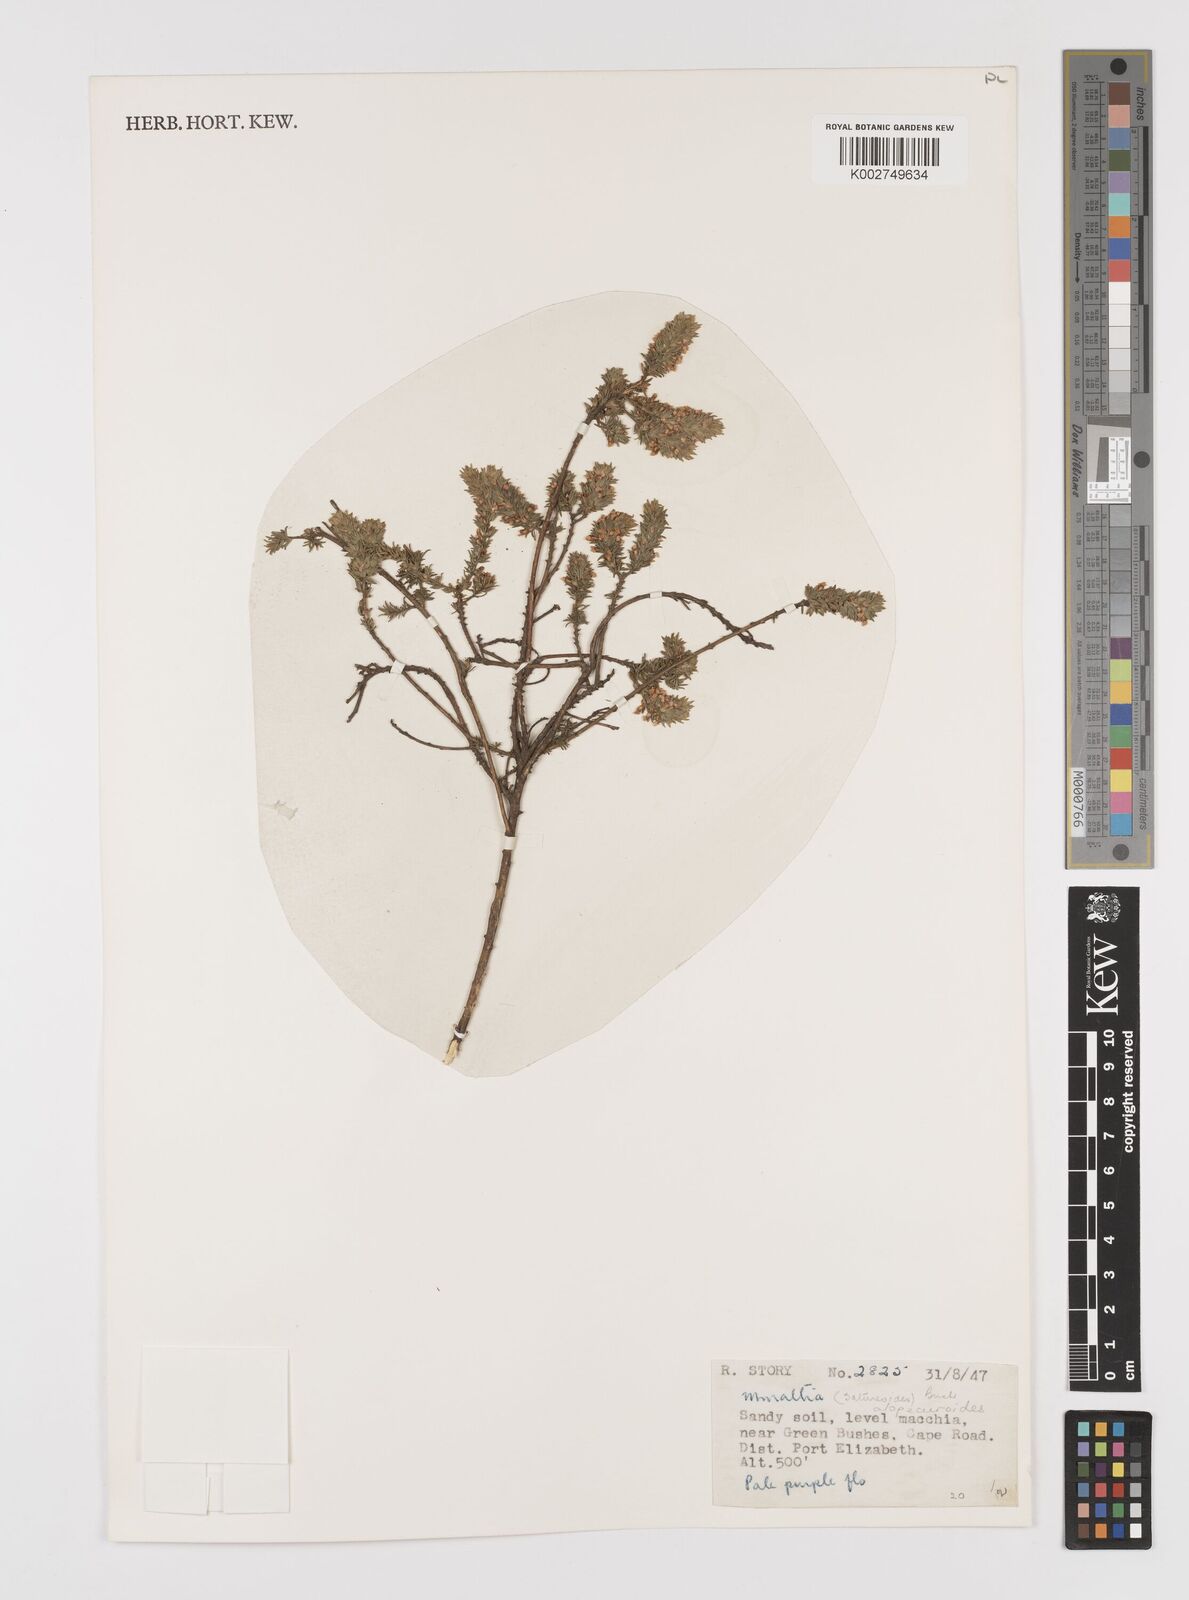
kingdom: Plantae
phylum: Tracheophyta
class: Magnoliopsida
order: Fabales
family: Polygalaceae
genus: Muraltia
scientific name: Muraltia alopecuroides
